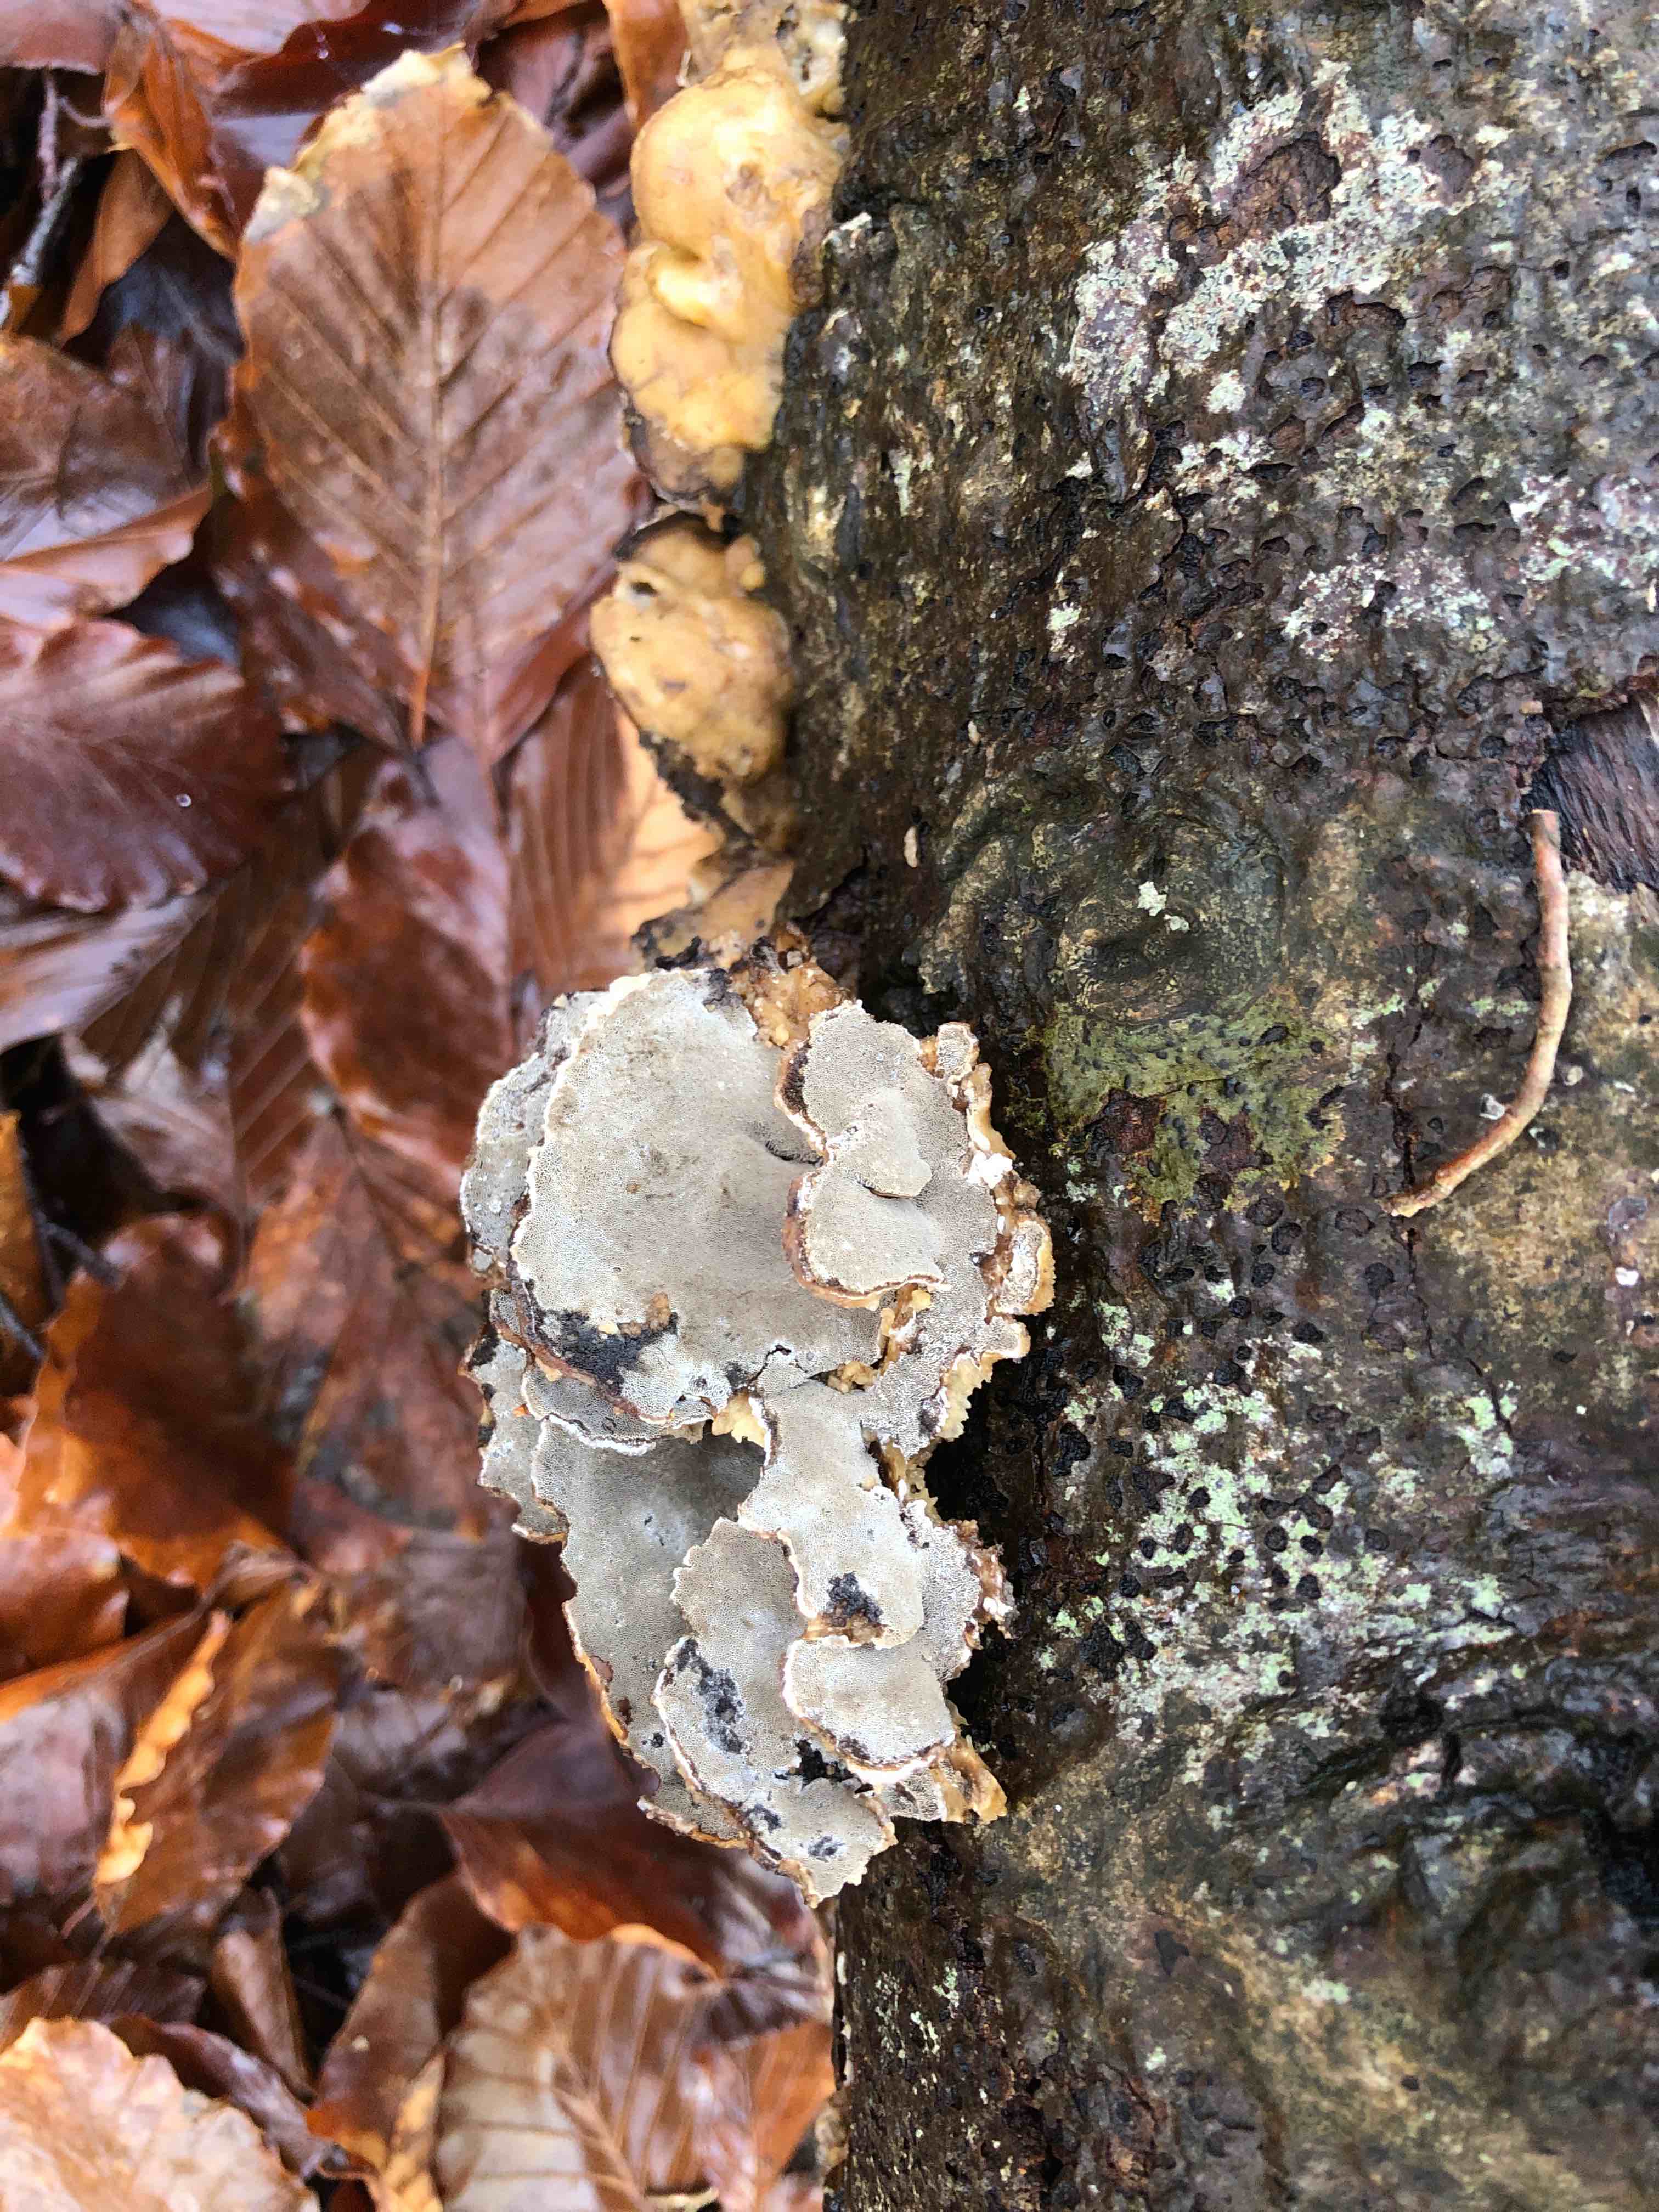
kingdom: Fungi
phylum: Basidiomycota
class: Agaricomycetes
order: Polyporales
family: Phanerochaetaceae
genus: Bjerkandera
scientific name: Bjerkandera adusta
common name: sveden sodporesvamp
